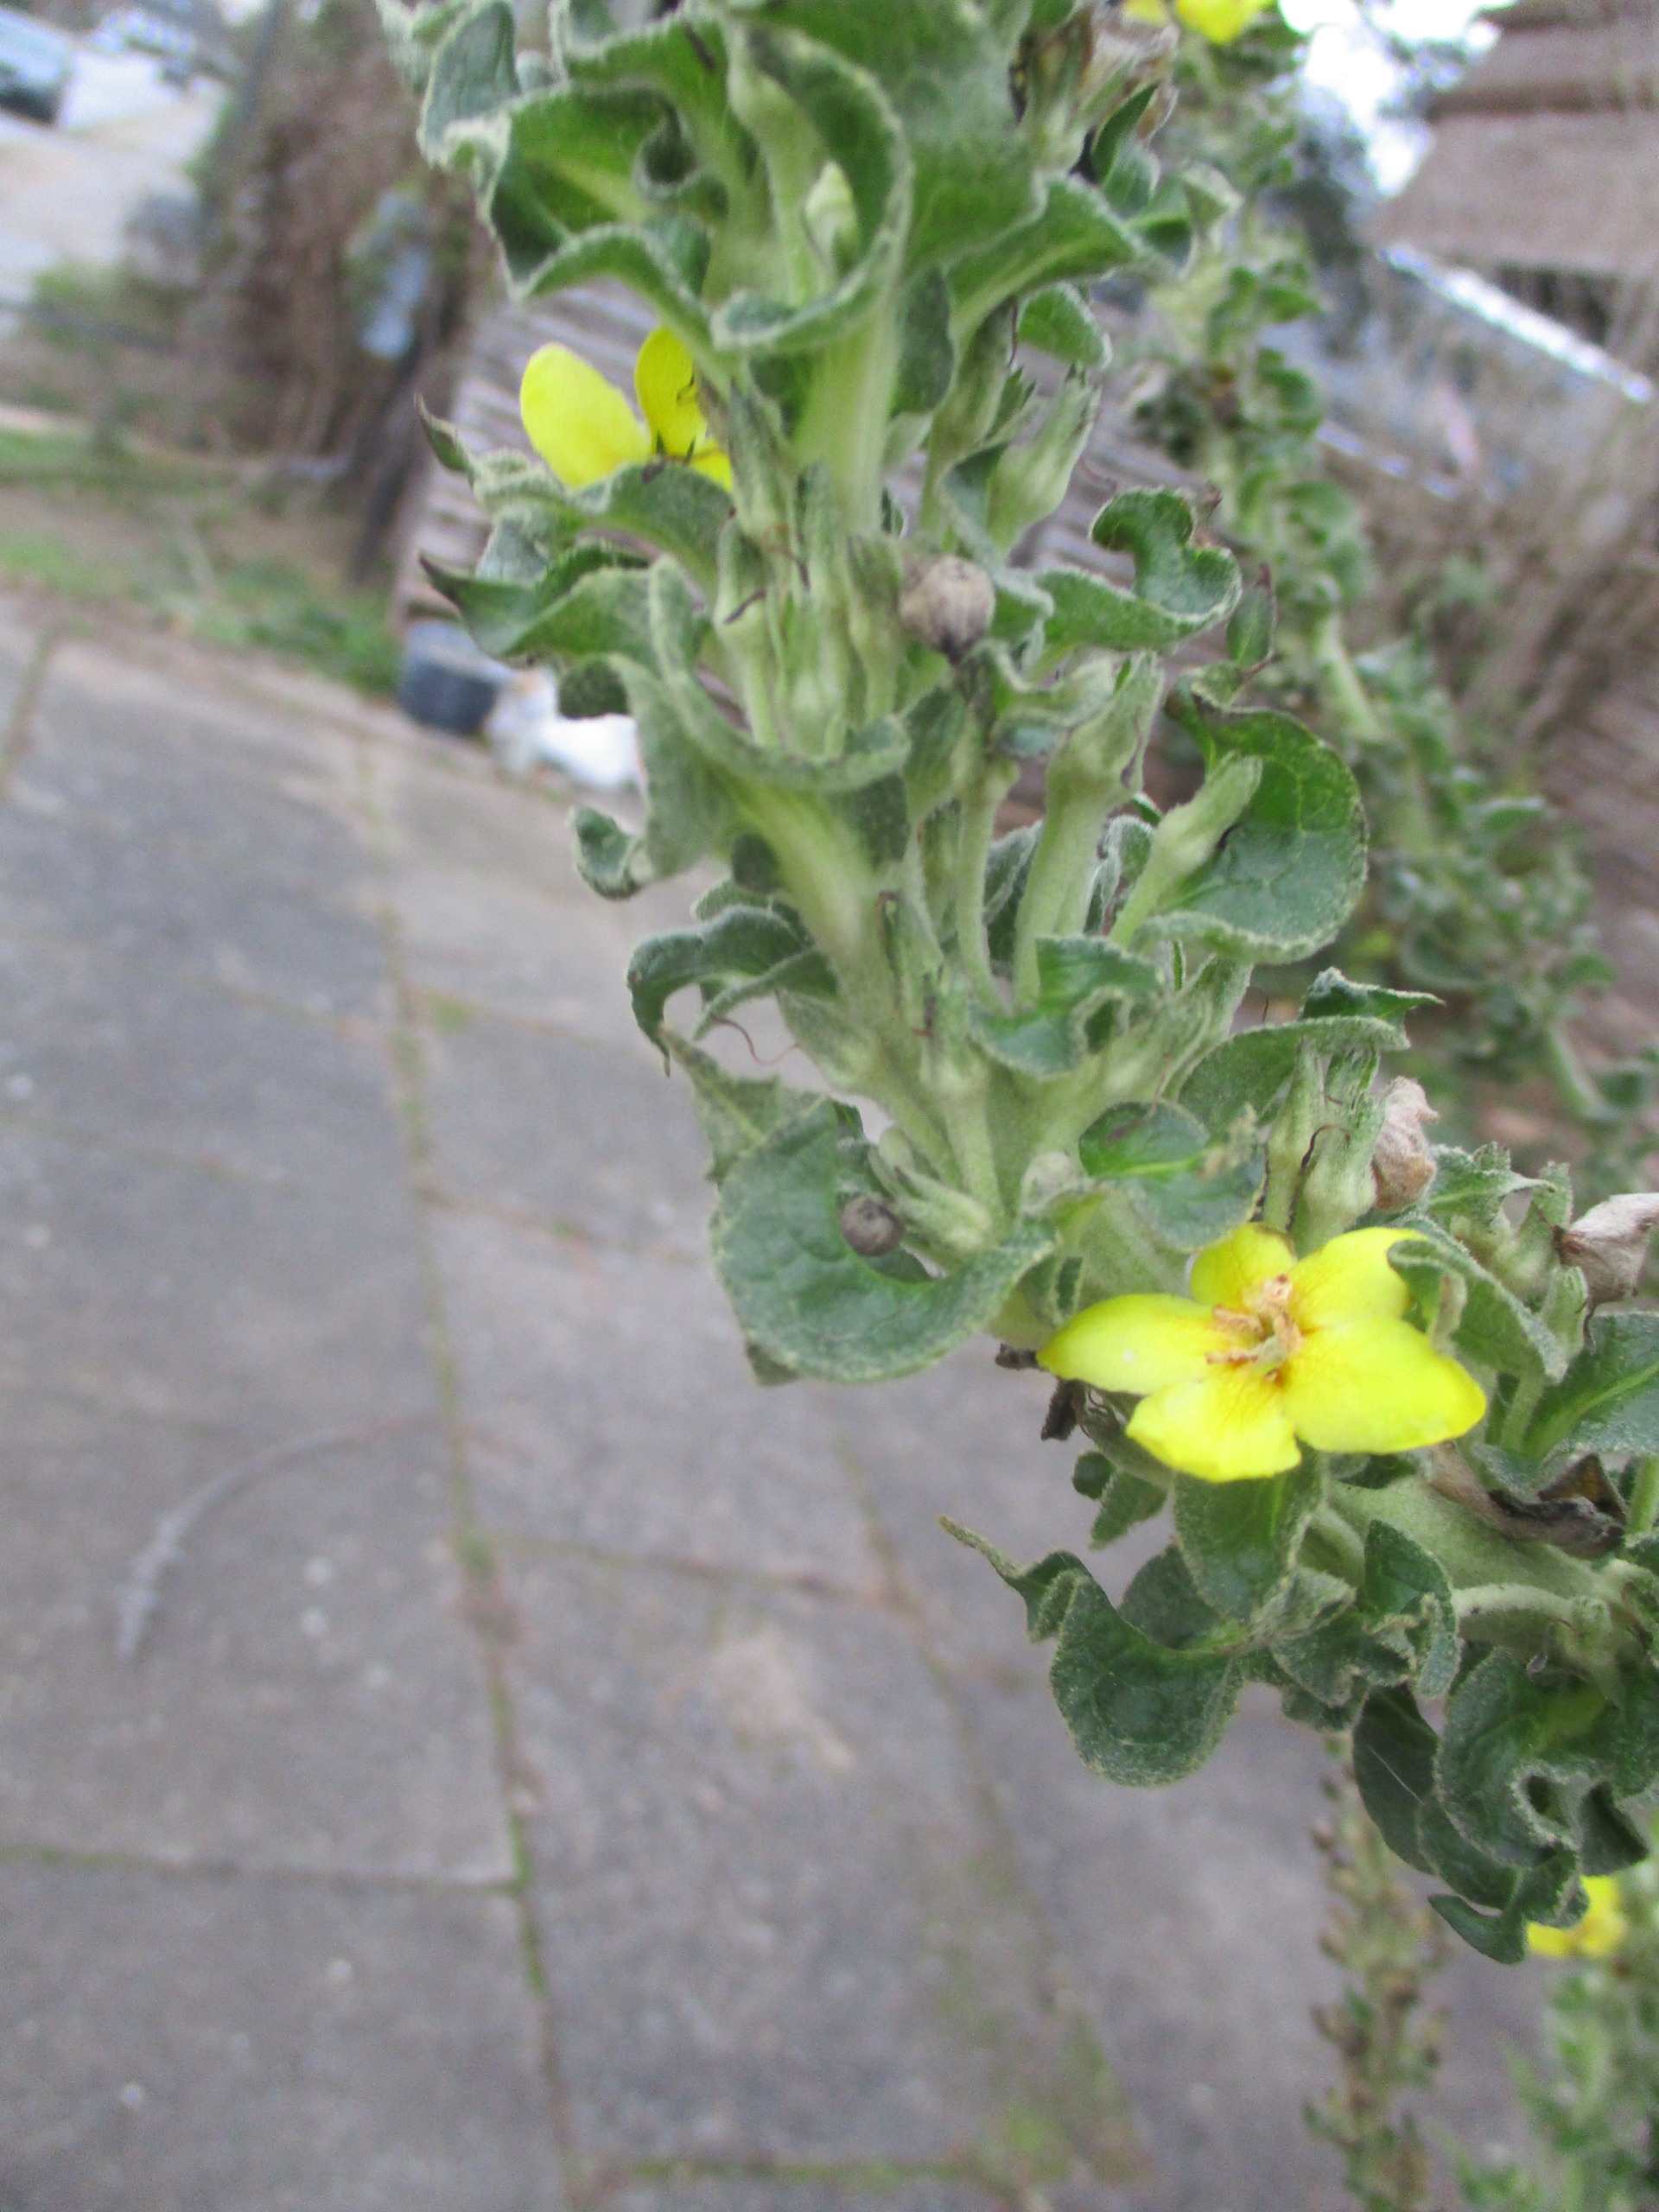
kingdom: Plantae
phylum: Tracheophyta
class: Magnoliopsida
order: Lamiales
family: Scrophulariaceae
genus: Verbascum
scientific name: Verbascum speciosum
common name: Kandelaber-kongelys
